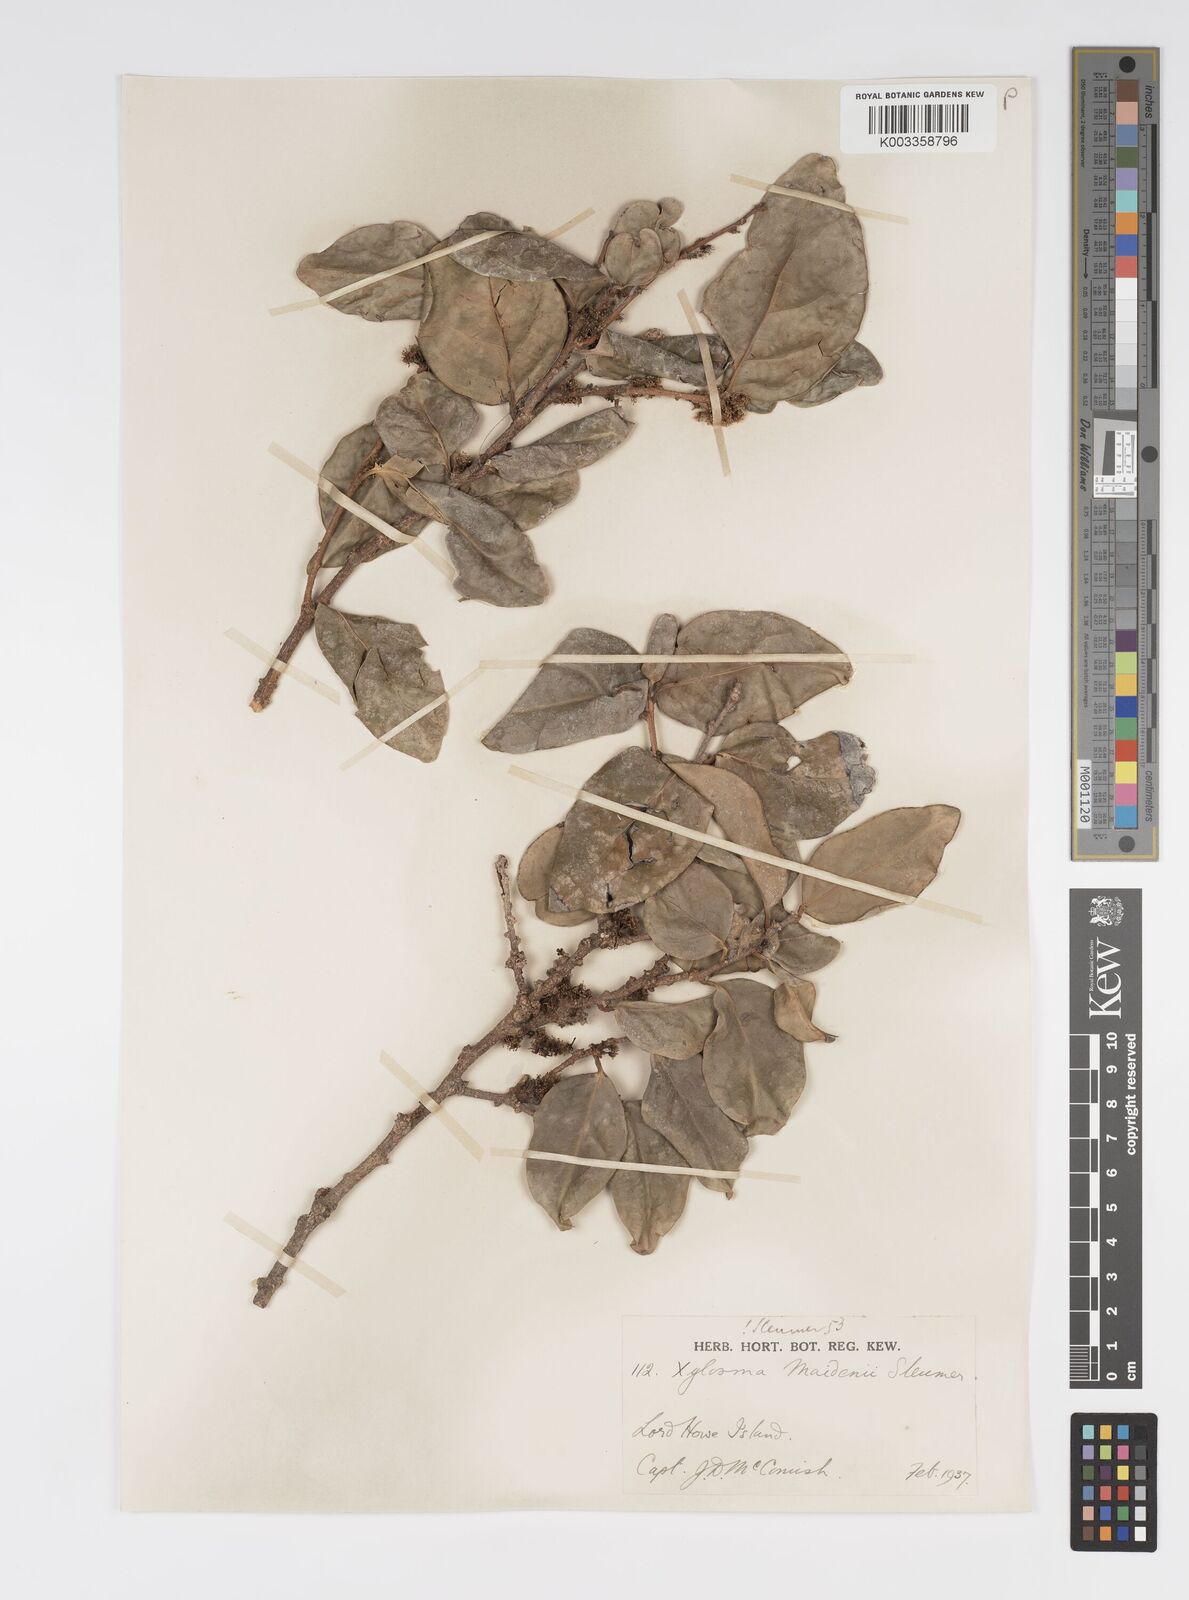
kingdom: Plantae
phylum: Tracheophyta
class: Magnoliopsida
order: Malpighiales
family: Salicaceae
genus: Xylosma
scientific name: Xylosma maidenii
